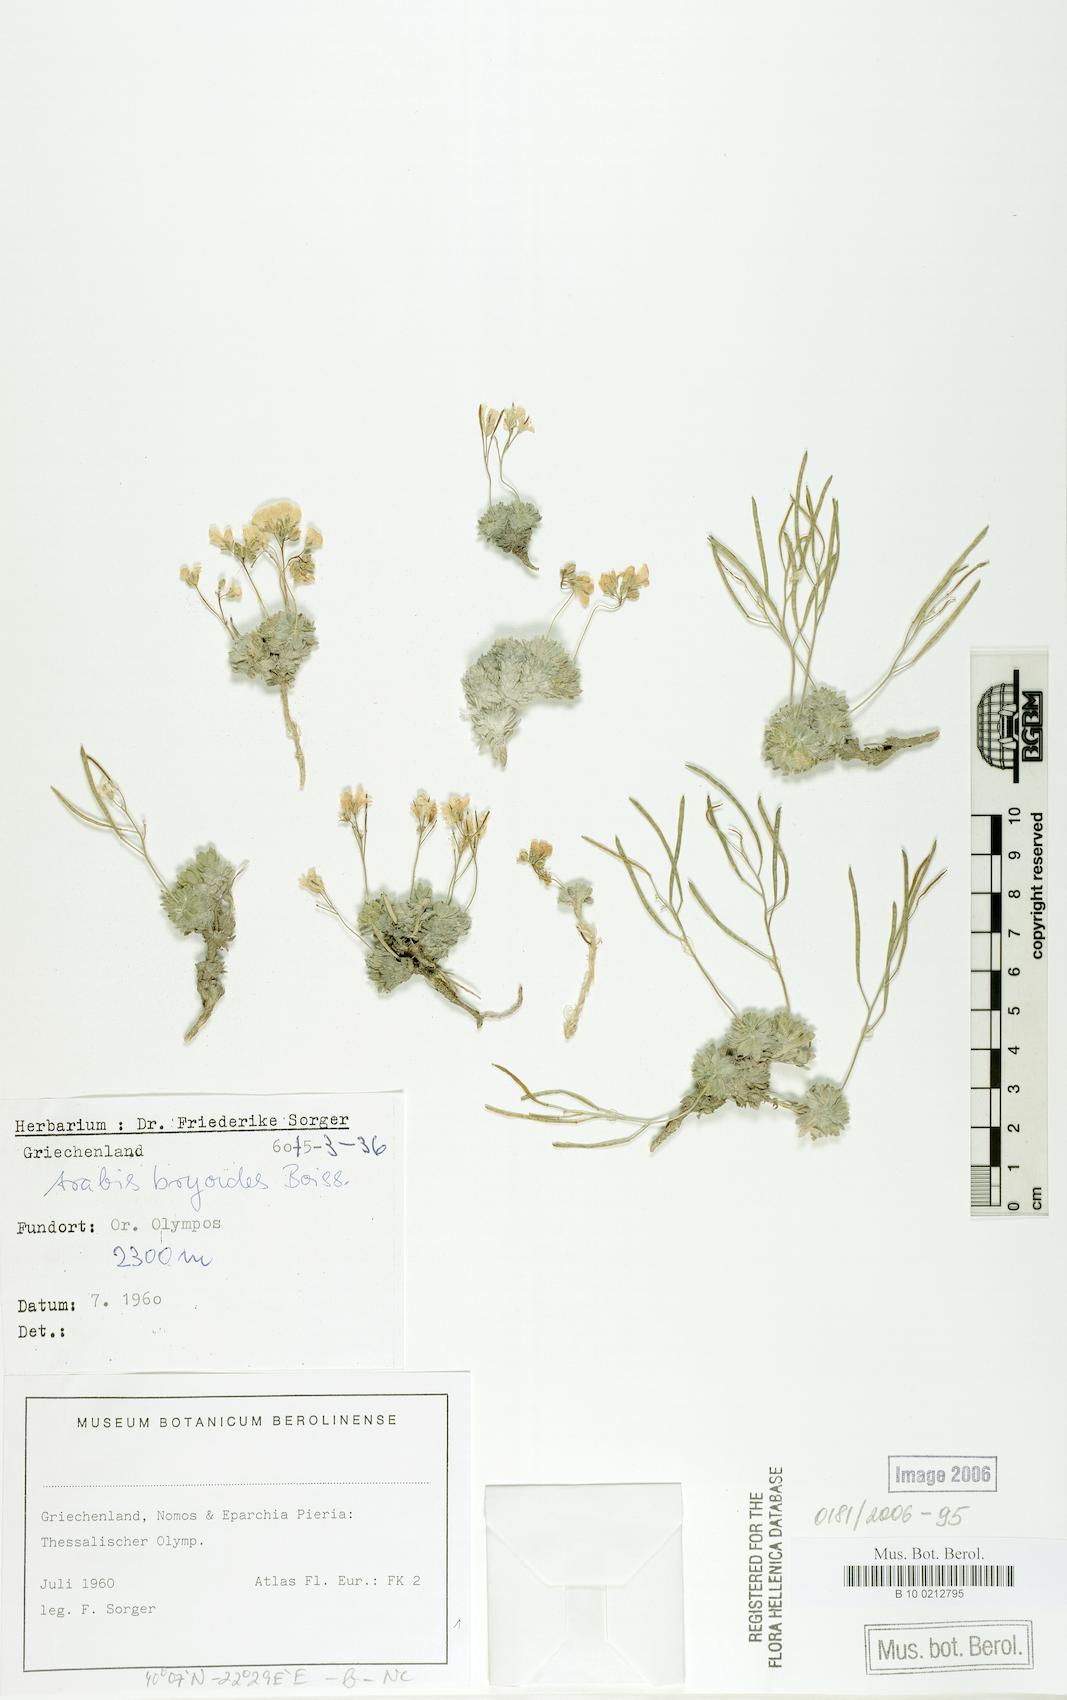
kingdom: Plantae
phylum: Tracheophyta
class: Magnoliopsida
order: Brassicales
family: Brassicaceae
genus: Arabis
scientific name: Arabis bryoides
